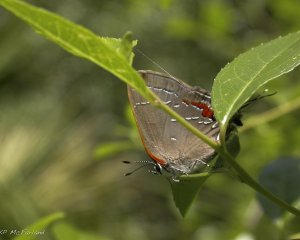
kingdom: Animalia
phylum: Arthropoda
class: Insecta
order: Lepidoptera
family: Lycaenidae
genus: Fixsenia
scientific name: Fixsenia favonius
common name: Oak Hairstreak
